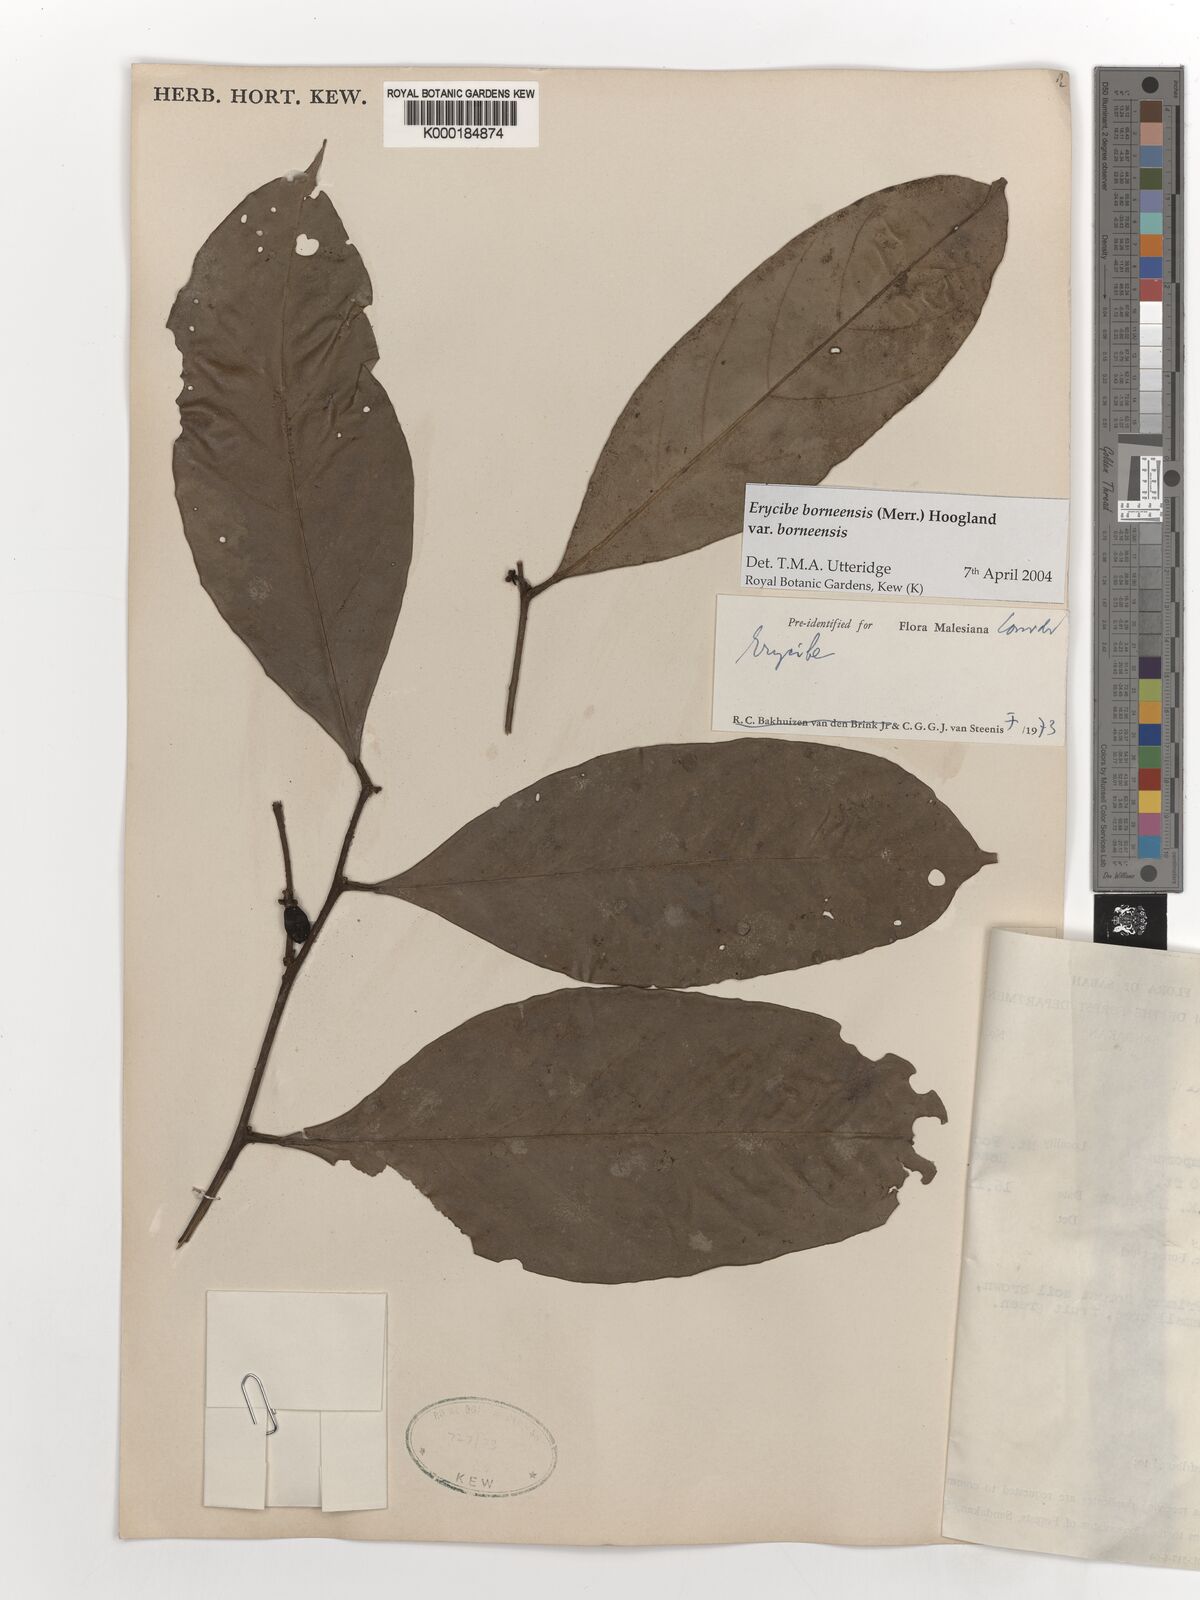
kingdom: Plantae
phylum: Tracheophyta
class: Magnoliopsida
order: Solanales
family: Convolvulaceae
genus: Erycibe
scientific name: Erycibe borneensis
